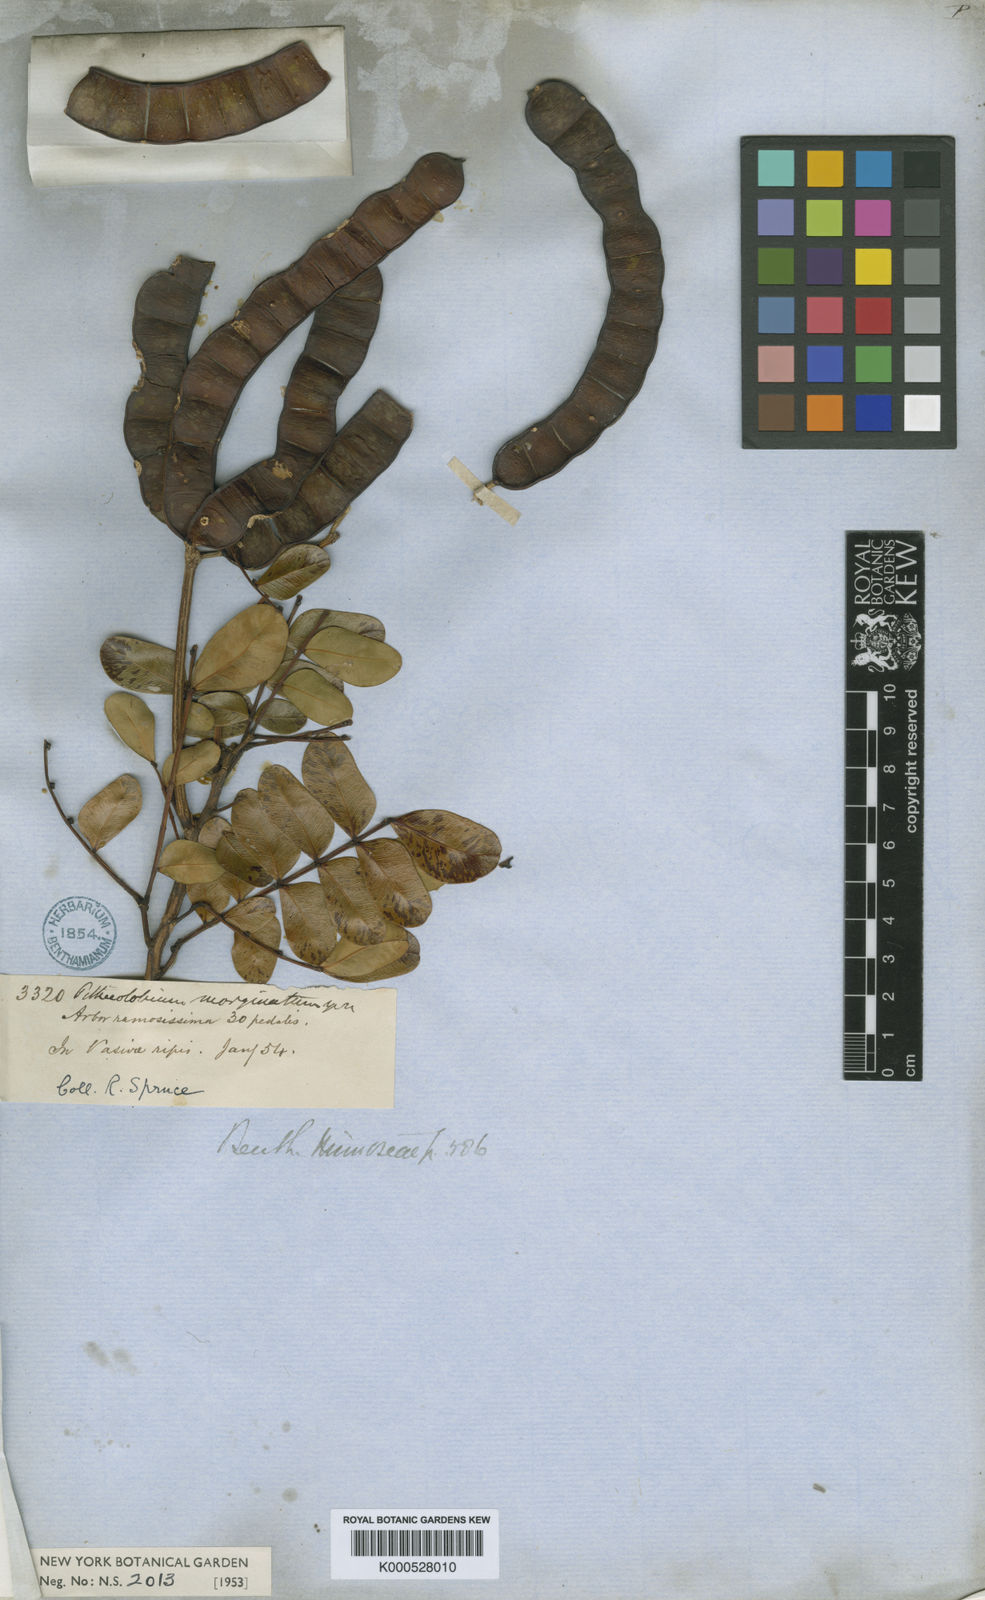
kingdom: Plantae
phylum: Tracheophyta
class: Magnoliopsida
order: Fabales
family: Fabaceae
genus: Hydrochorea
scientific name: Hydrochorea marginata
